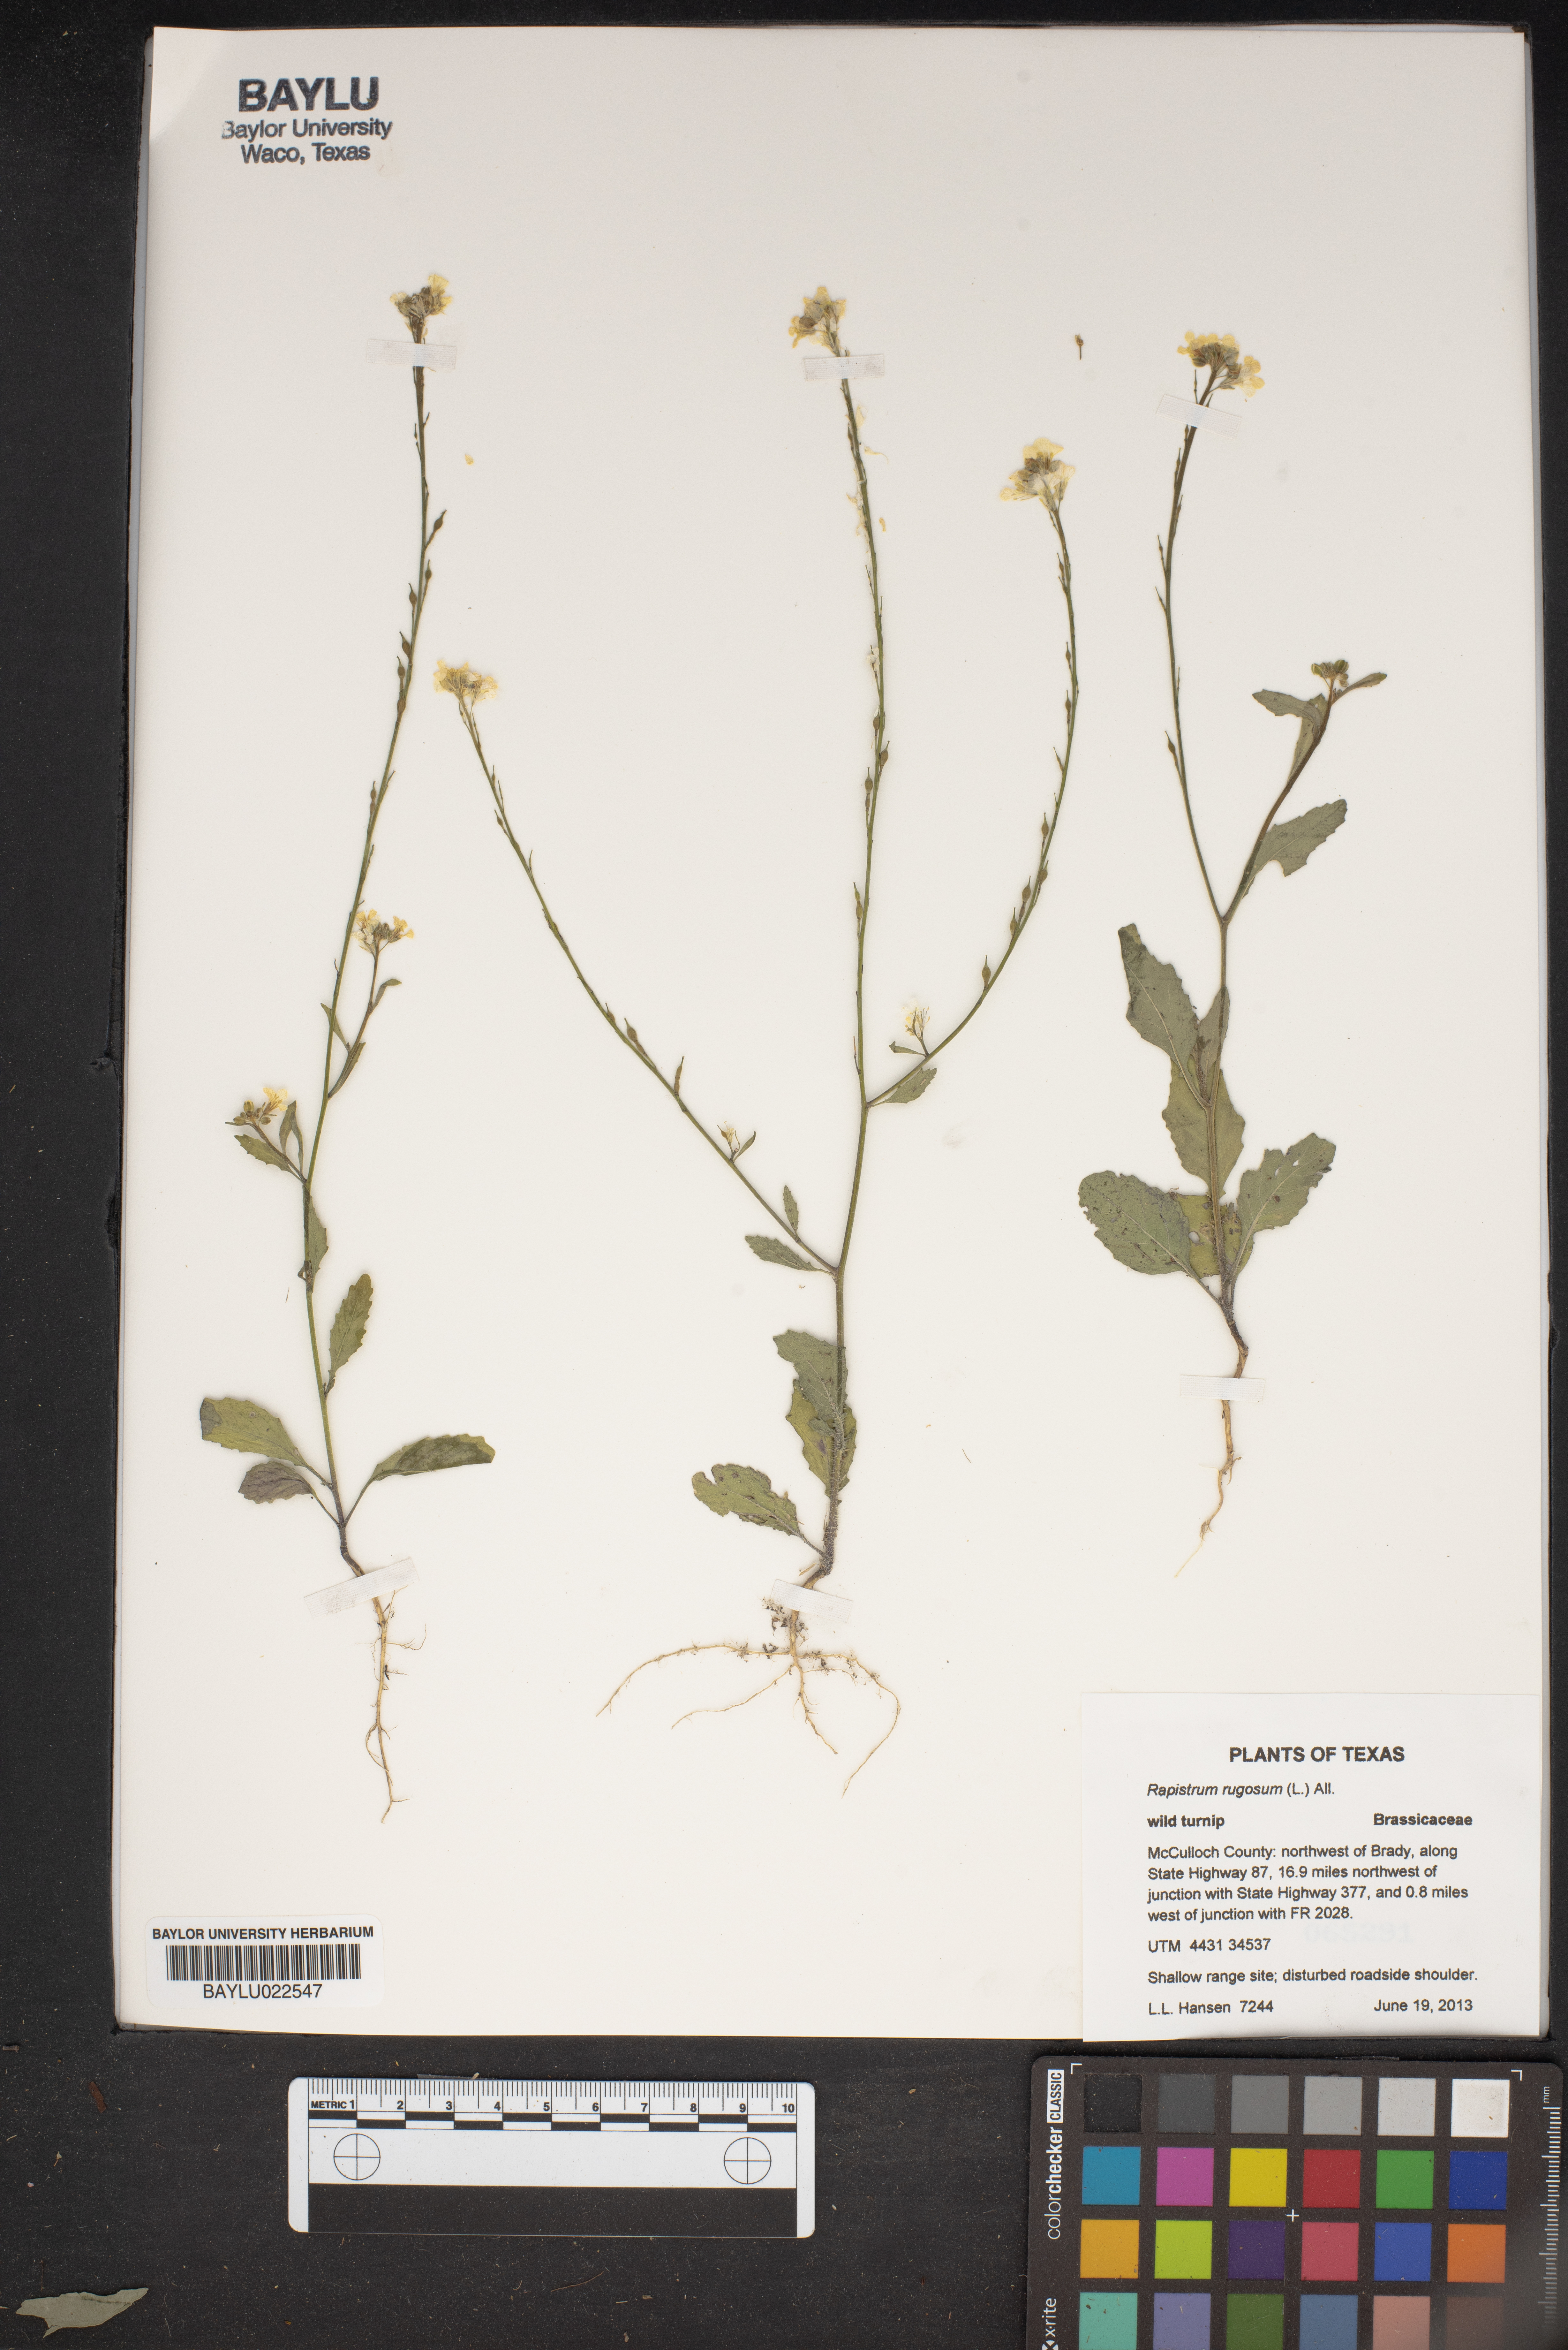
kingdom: Plantae
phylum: Tracheophyta
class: Magnoliopsida
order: Brassicales
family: Brassicaceae
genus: Rapistrum
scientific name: Rapistrum rugosum
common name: Annual bastardcabbage
